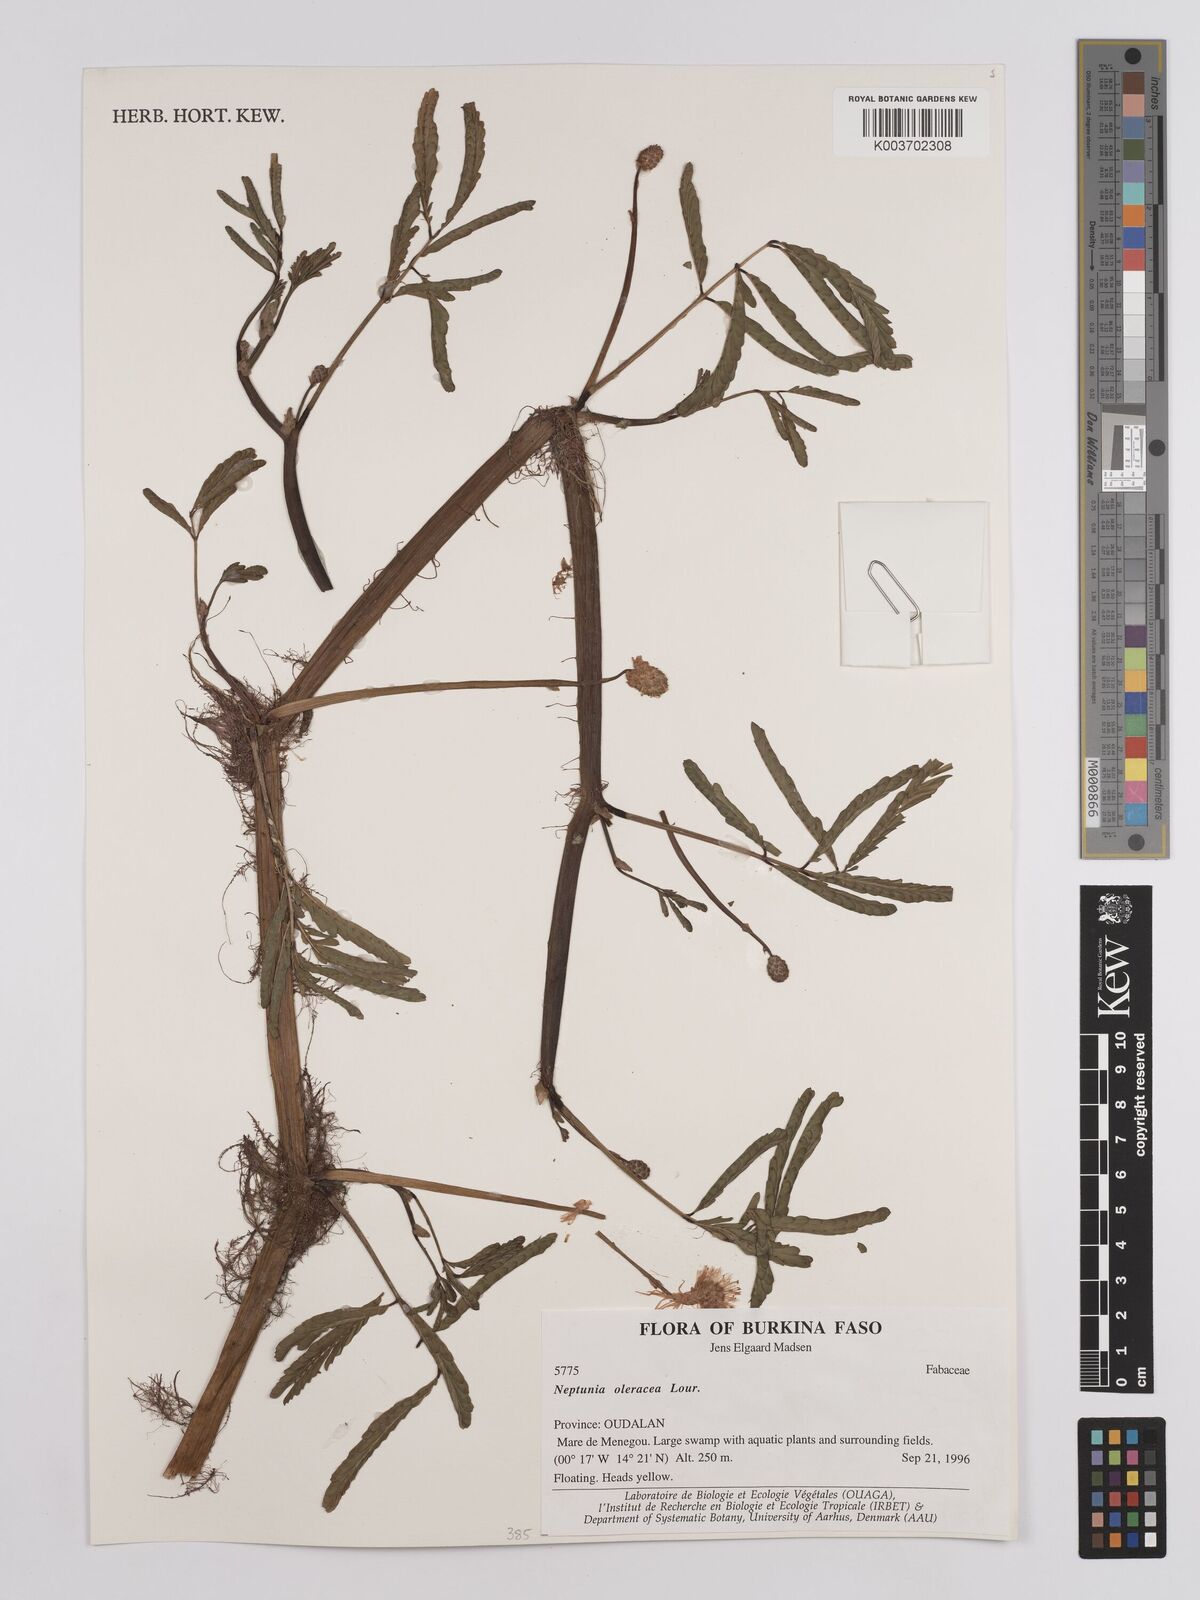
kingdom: Plantae
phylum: Tracheophyta
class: Magnoliopsida
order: Fabales
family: Fabaceae
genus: Neptunia
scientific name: Neptunia prostrata
